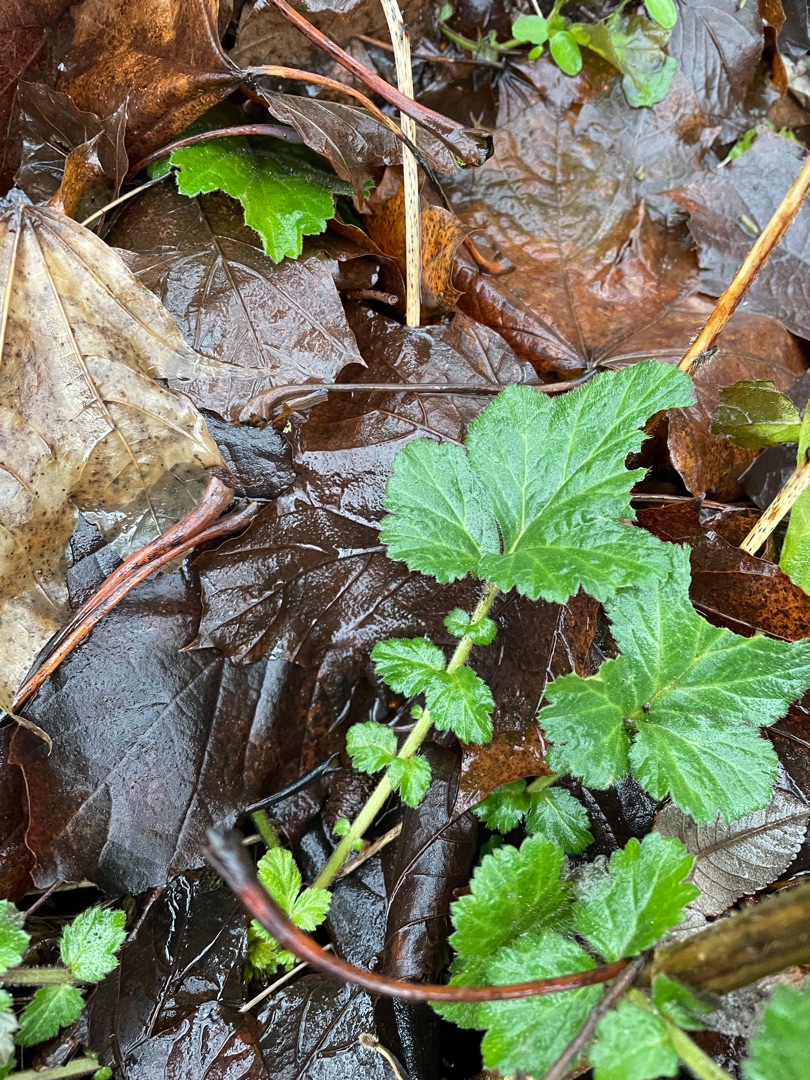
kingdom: Plantae
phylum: Tracheophyta
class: Magnoliopsida
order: Rosales
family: Rosaceae
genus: Geum
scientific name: Geum urbanum
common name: Feber-nellikerod
